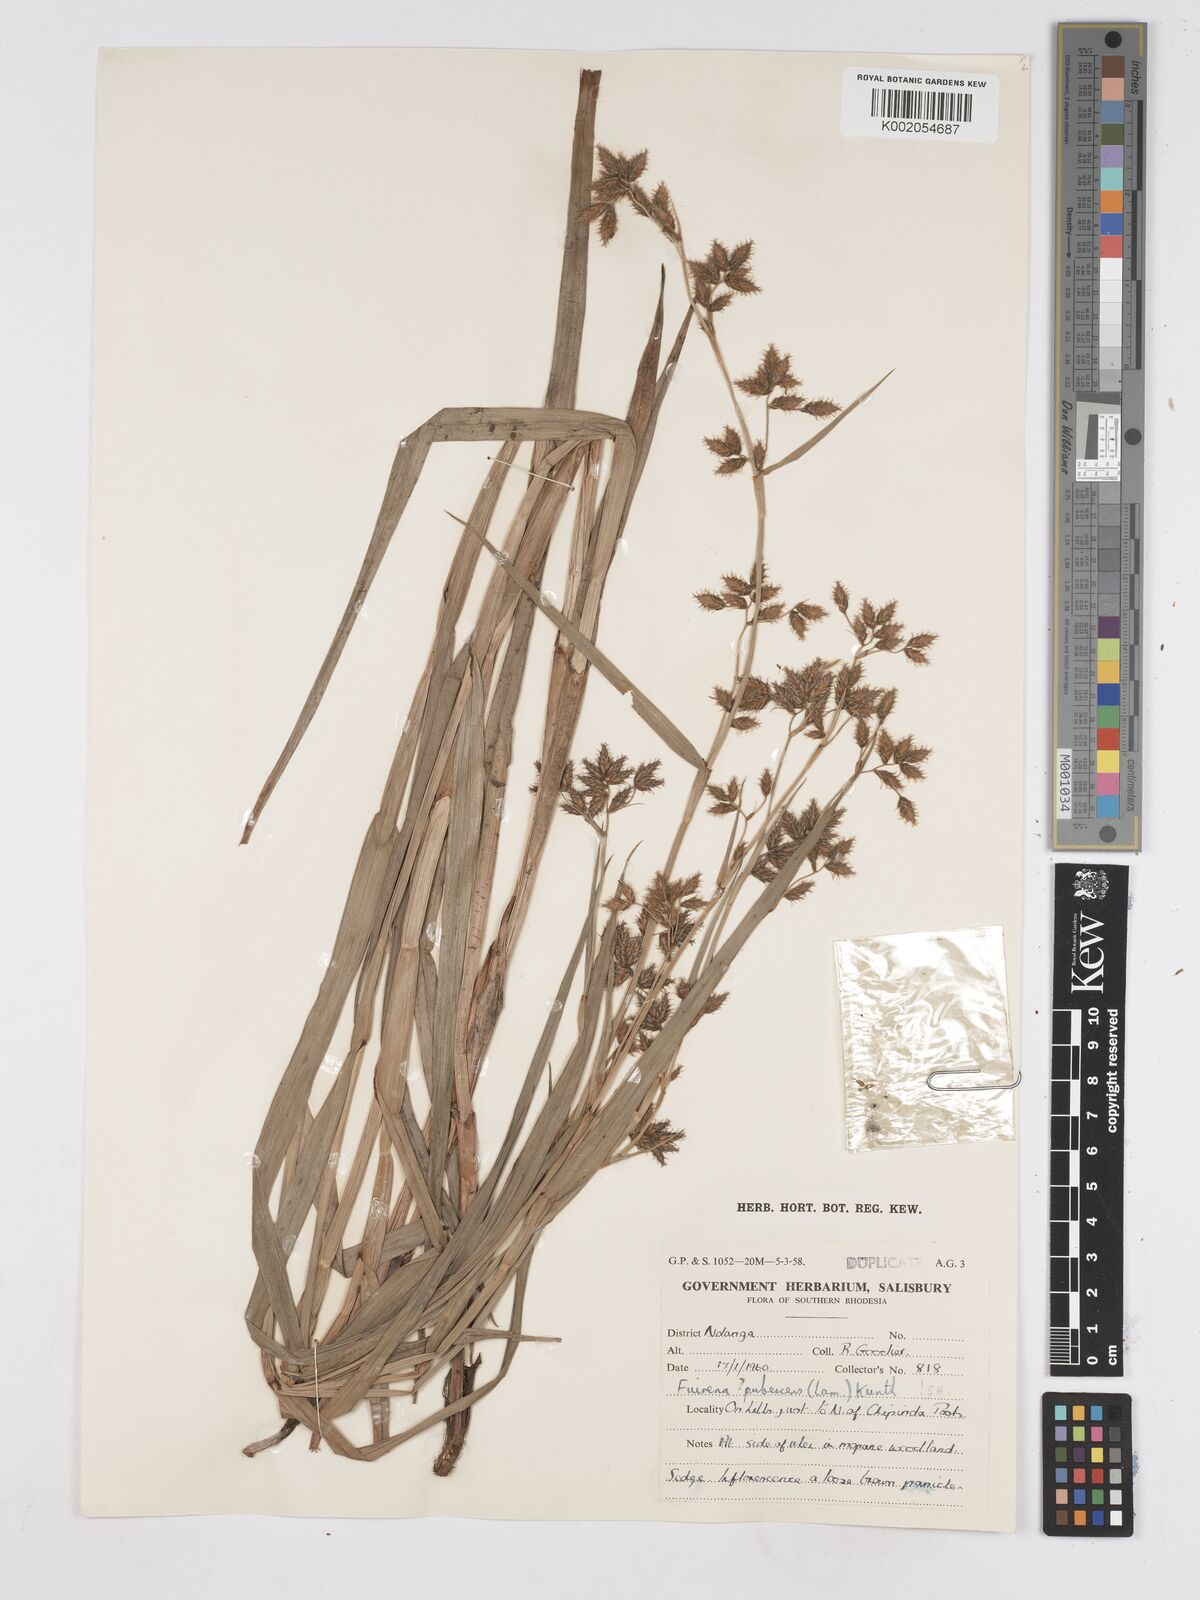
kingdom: Plantae
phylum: Tracheophyta
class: Liliopsida
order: Poales
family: Cyperaceae
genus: Fuirena
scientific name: Fuirena pachyrrhiza
